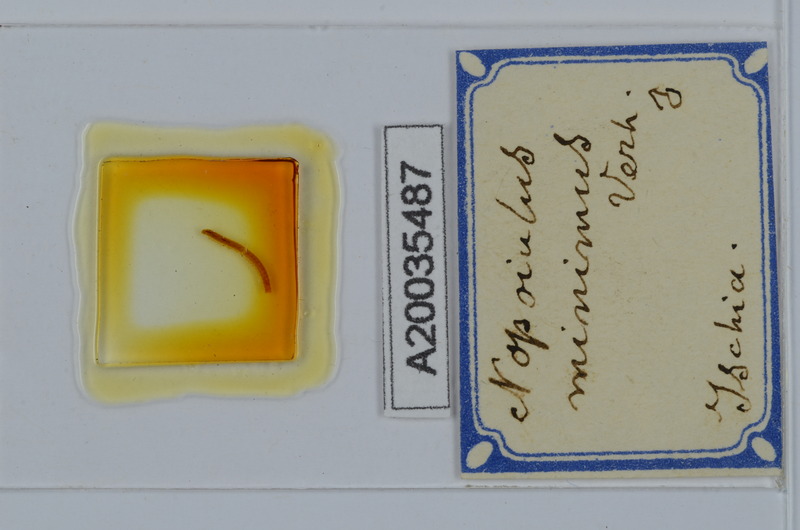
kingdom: Animalia
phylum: Arthropoda
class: Diplopoda
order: Julida
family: Blaniulidae
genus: Choneiulus
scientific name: Choneiulus subterraneus
